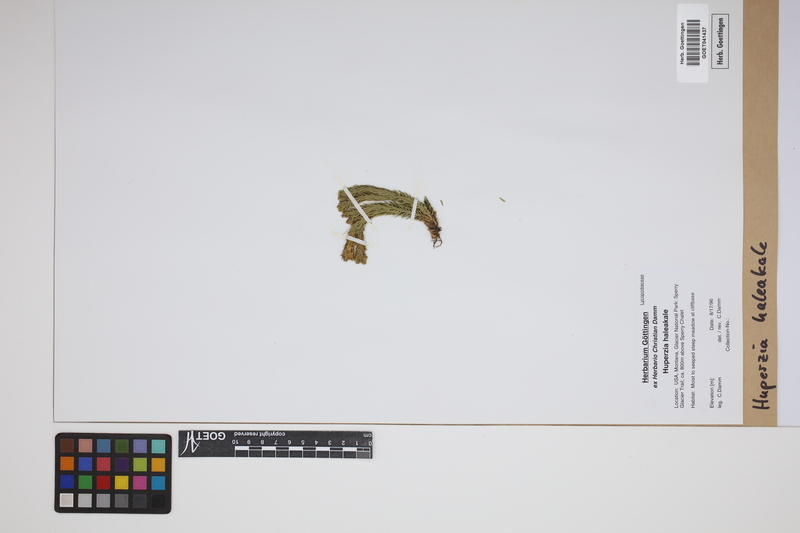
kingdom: Plantae
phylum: Tracheophyta
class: Lycopodiopsida
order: Lycopodiales
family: Lycopodiaceae
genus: Huperzia
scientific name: Huperzia haleakalae
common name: Haleakala firmoss
